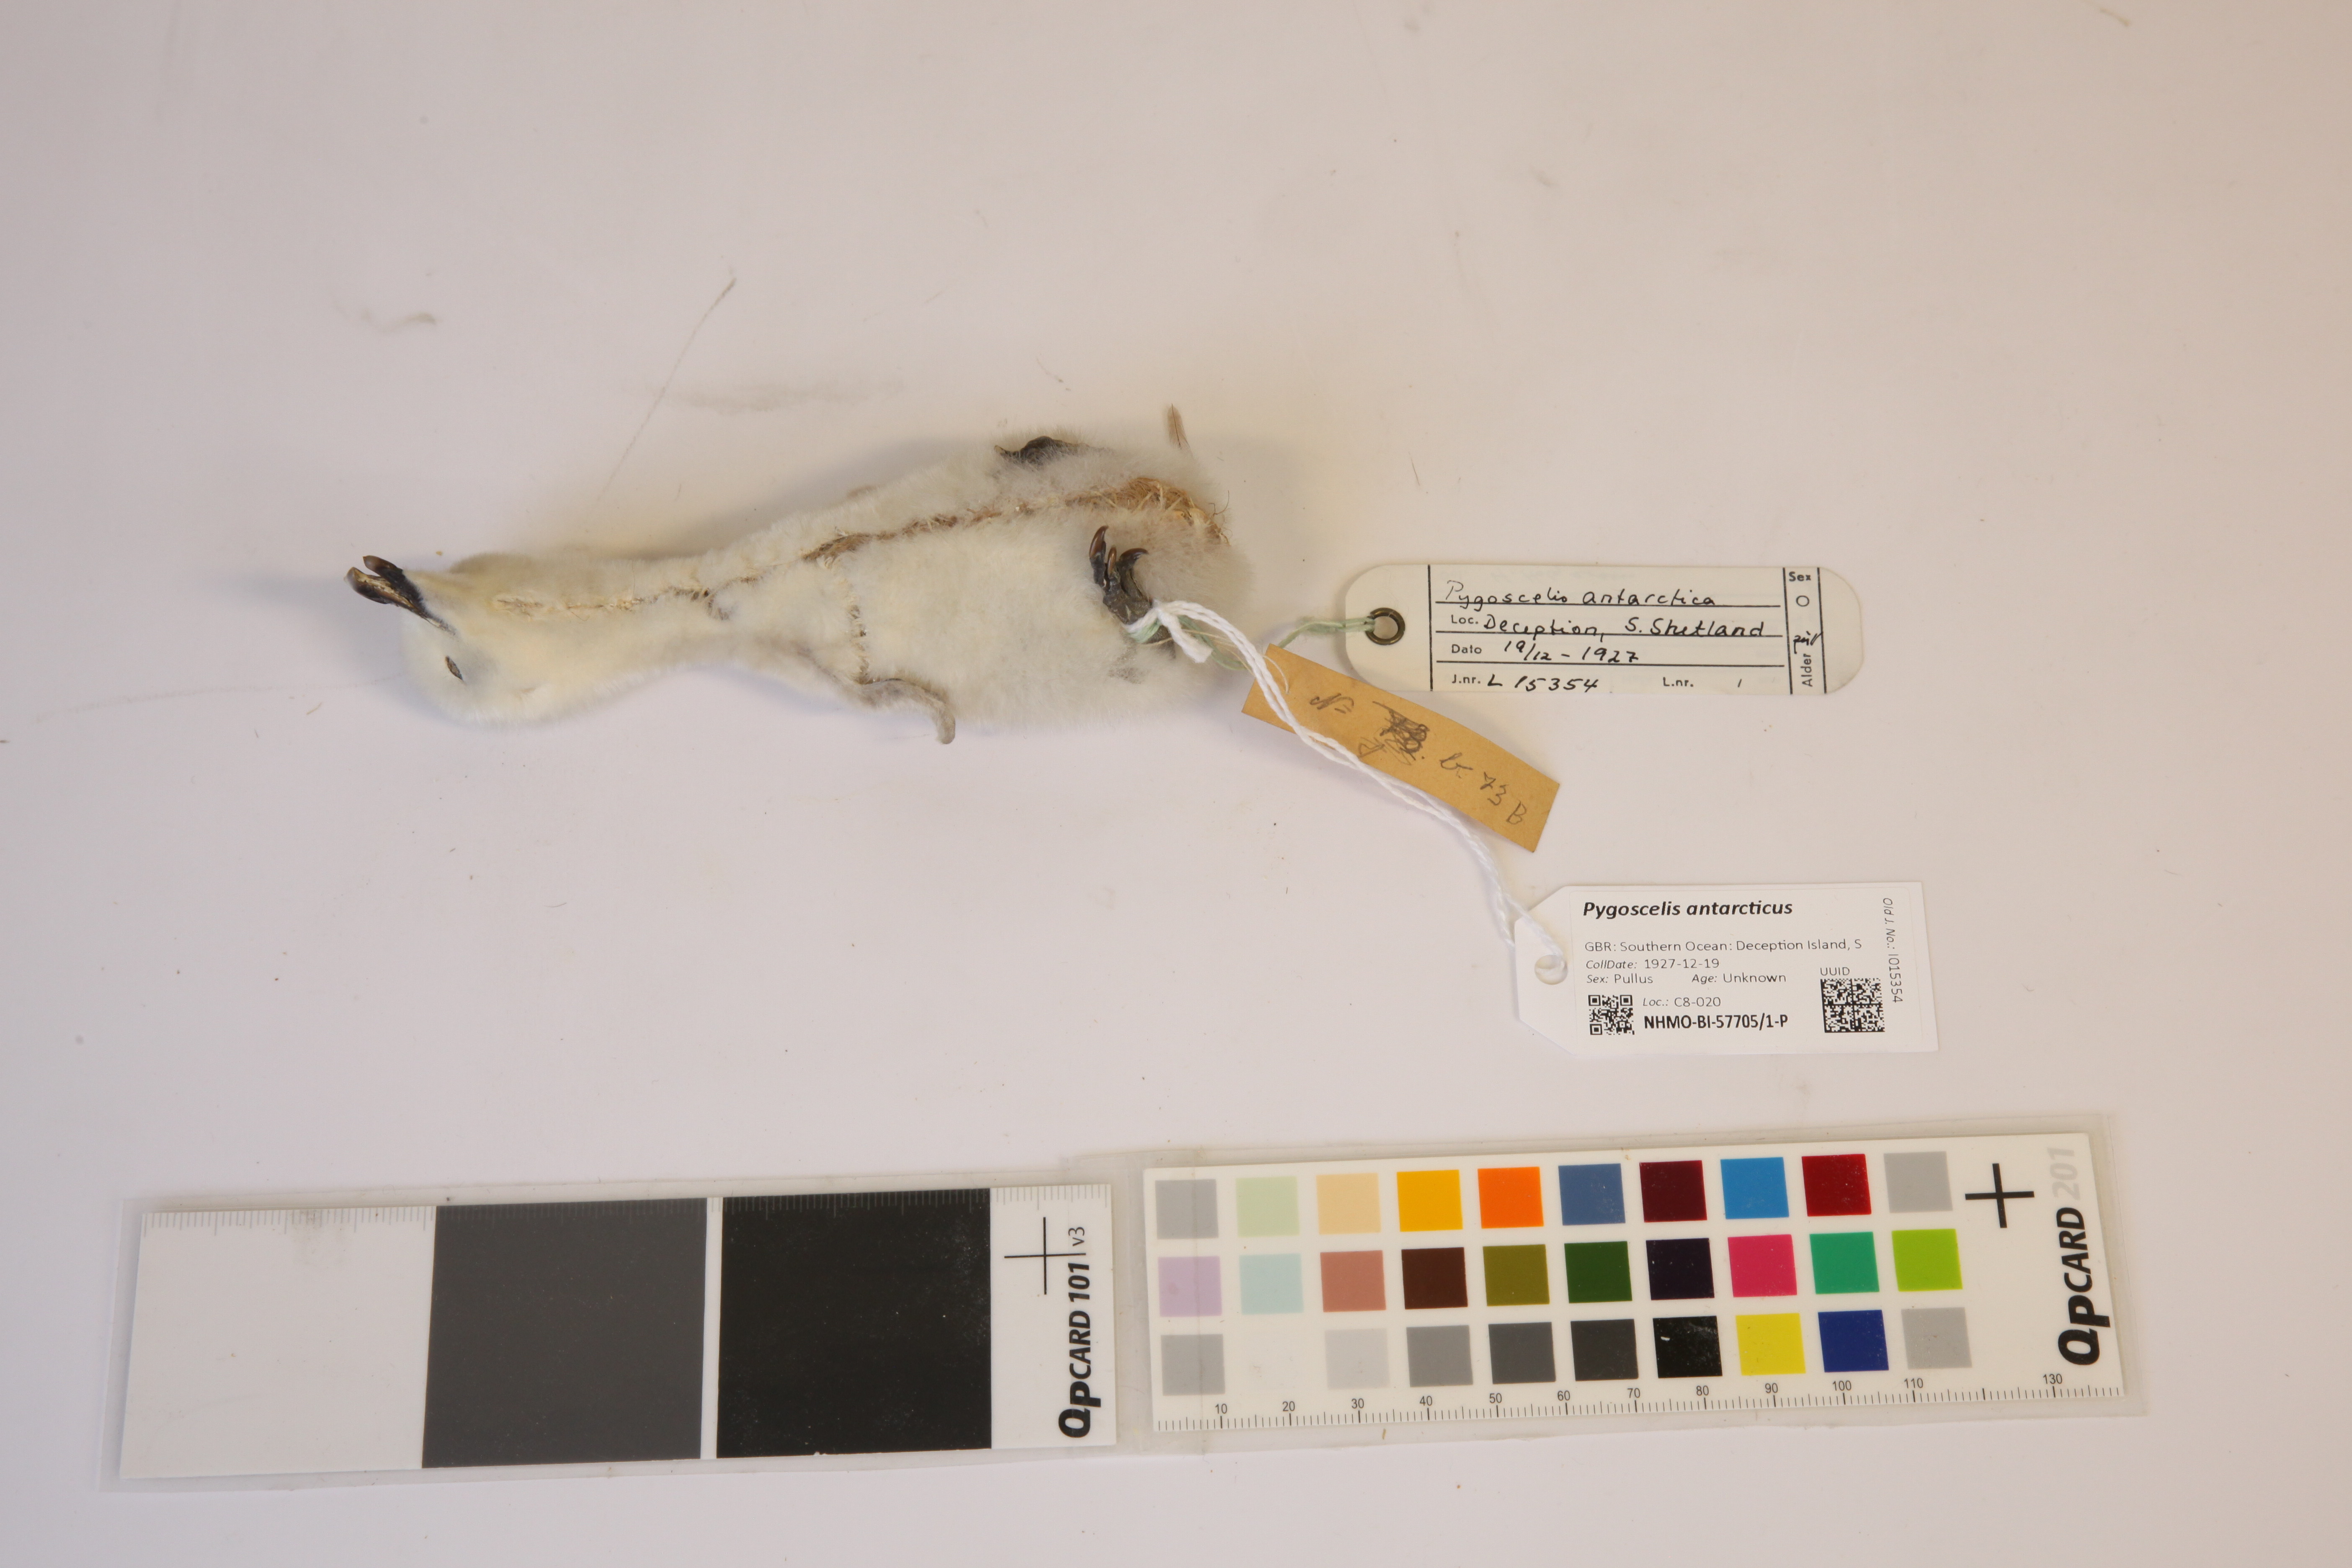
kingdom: Animalia
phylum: Chordata
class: Aves
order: Sphenisciformes
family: Spheniscidae
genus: Pygoscelis
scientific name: Pygoscelis antarcticus
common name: Chinstrap penguin
